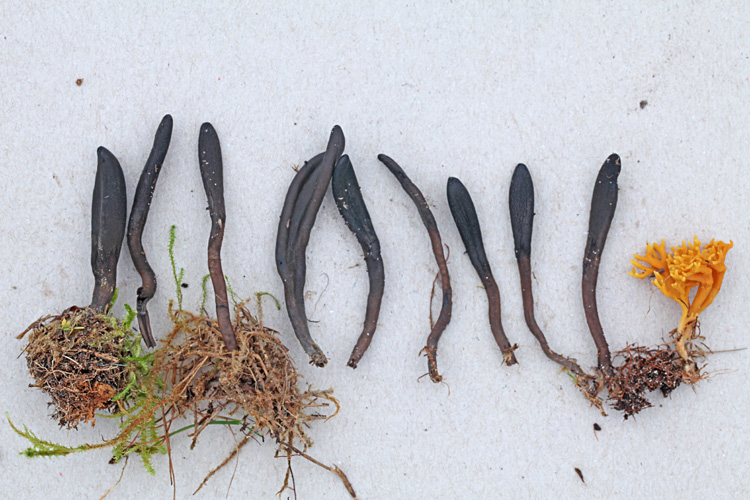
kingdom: Fungi
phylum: Ascomycota
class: Geoglossomycetes
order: Geoglossales
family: Geoglossaceae
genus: Hemileucoglossum
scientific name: Hemileucoglossum elongatum
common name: småsporet jordtunge
